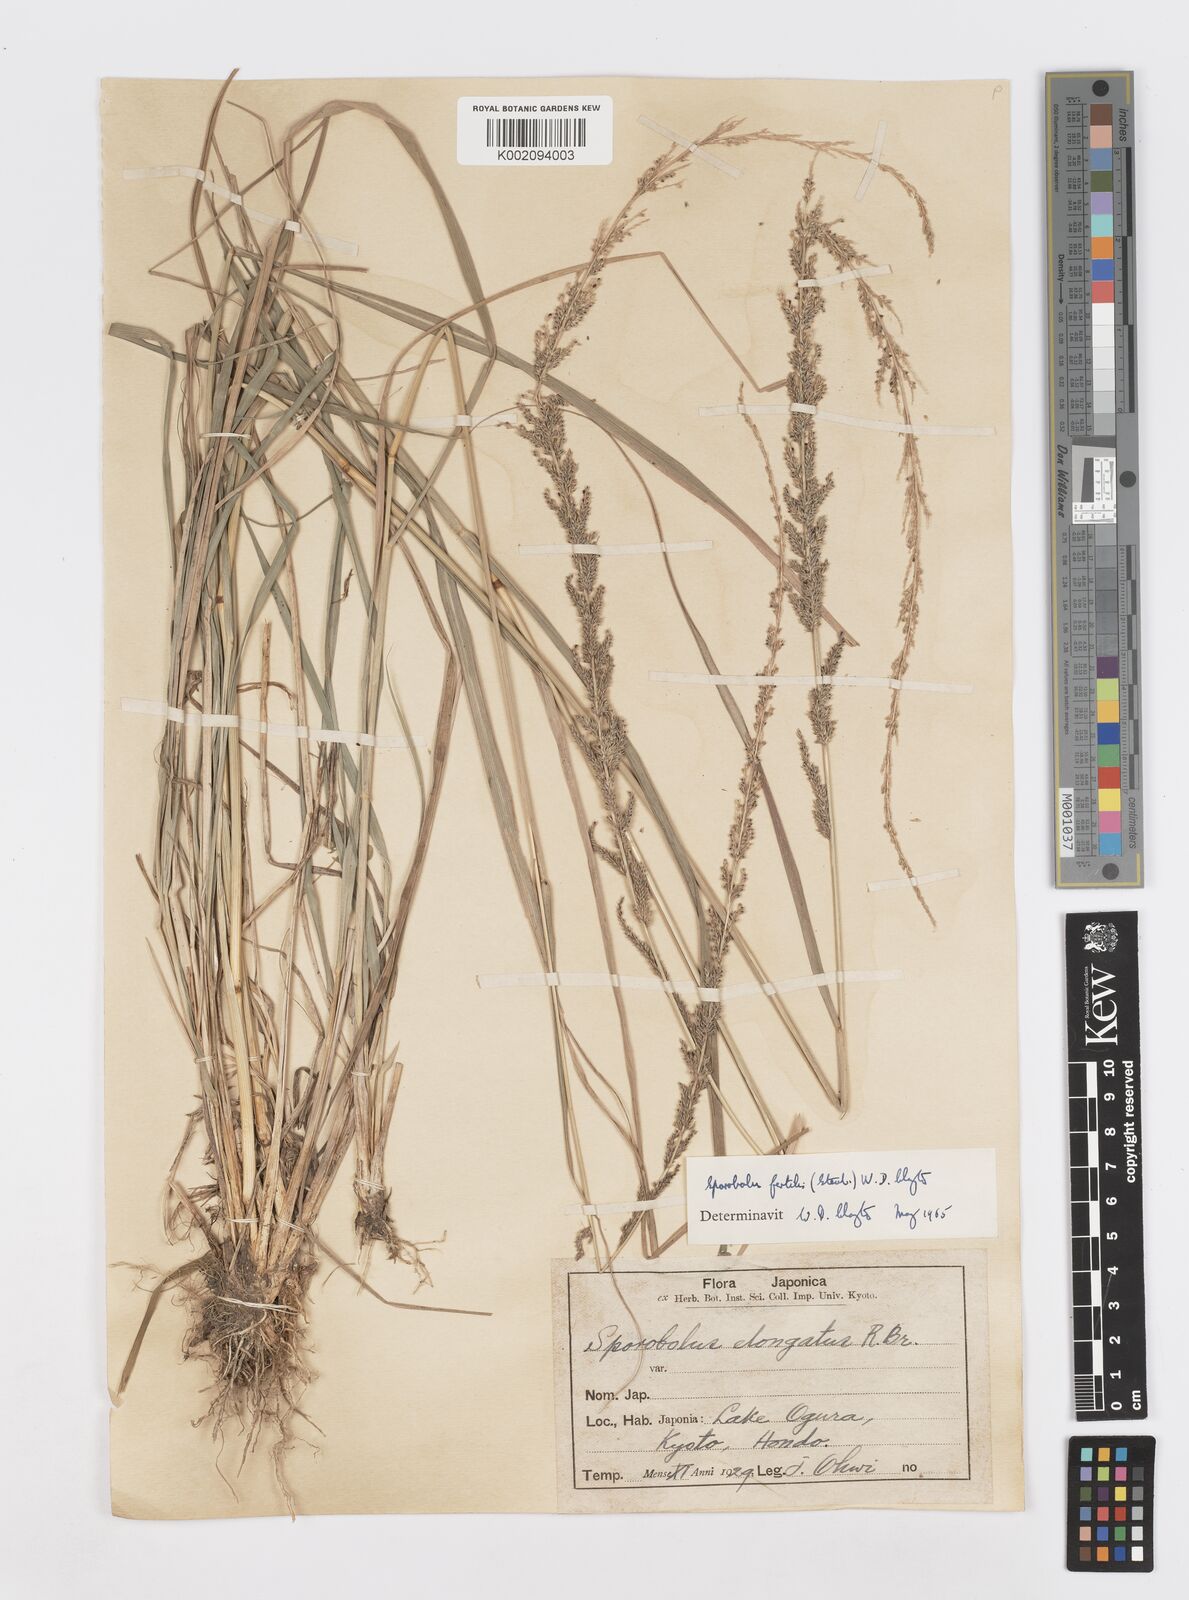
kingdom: Plantae
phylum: Tracheophyta
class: Liliopsida
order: Poales
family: Poaceae
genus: Sporobolus
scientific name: Sporobolus fertilis
